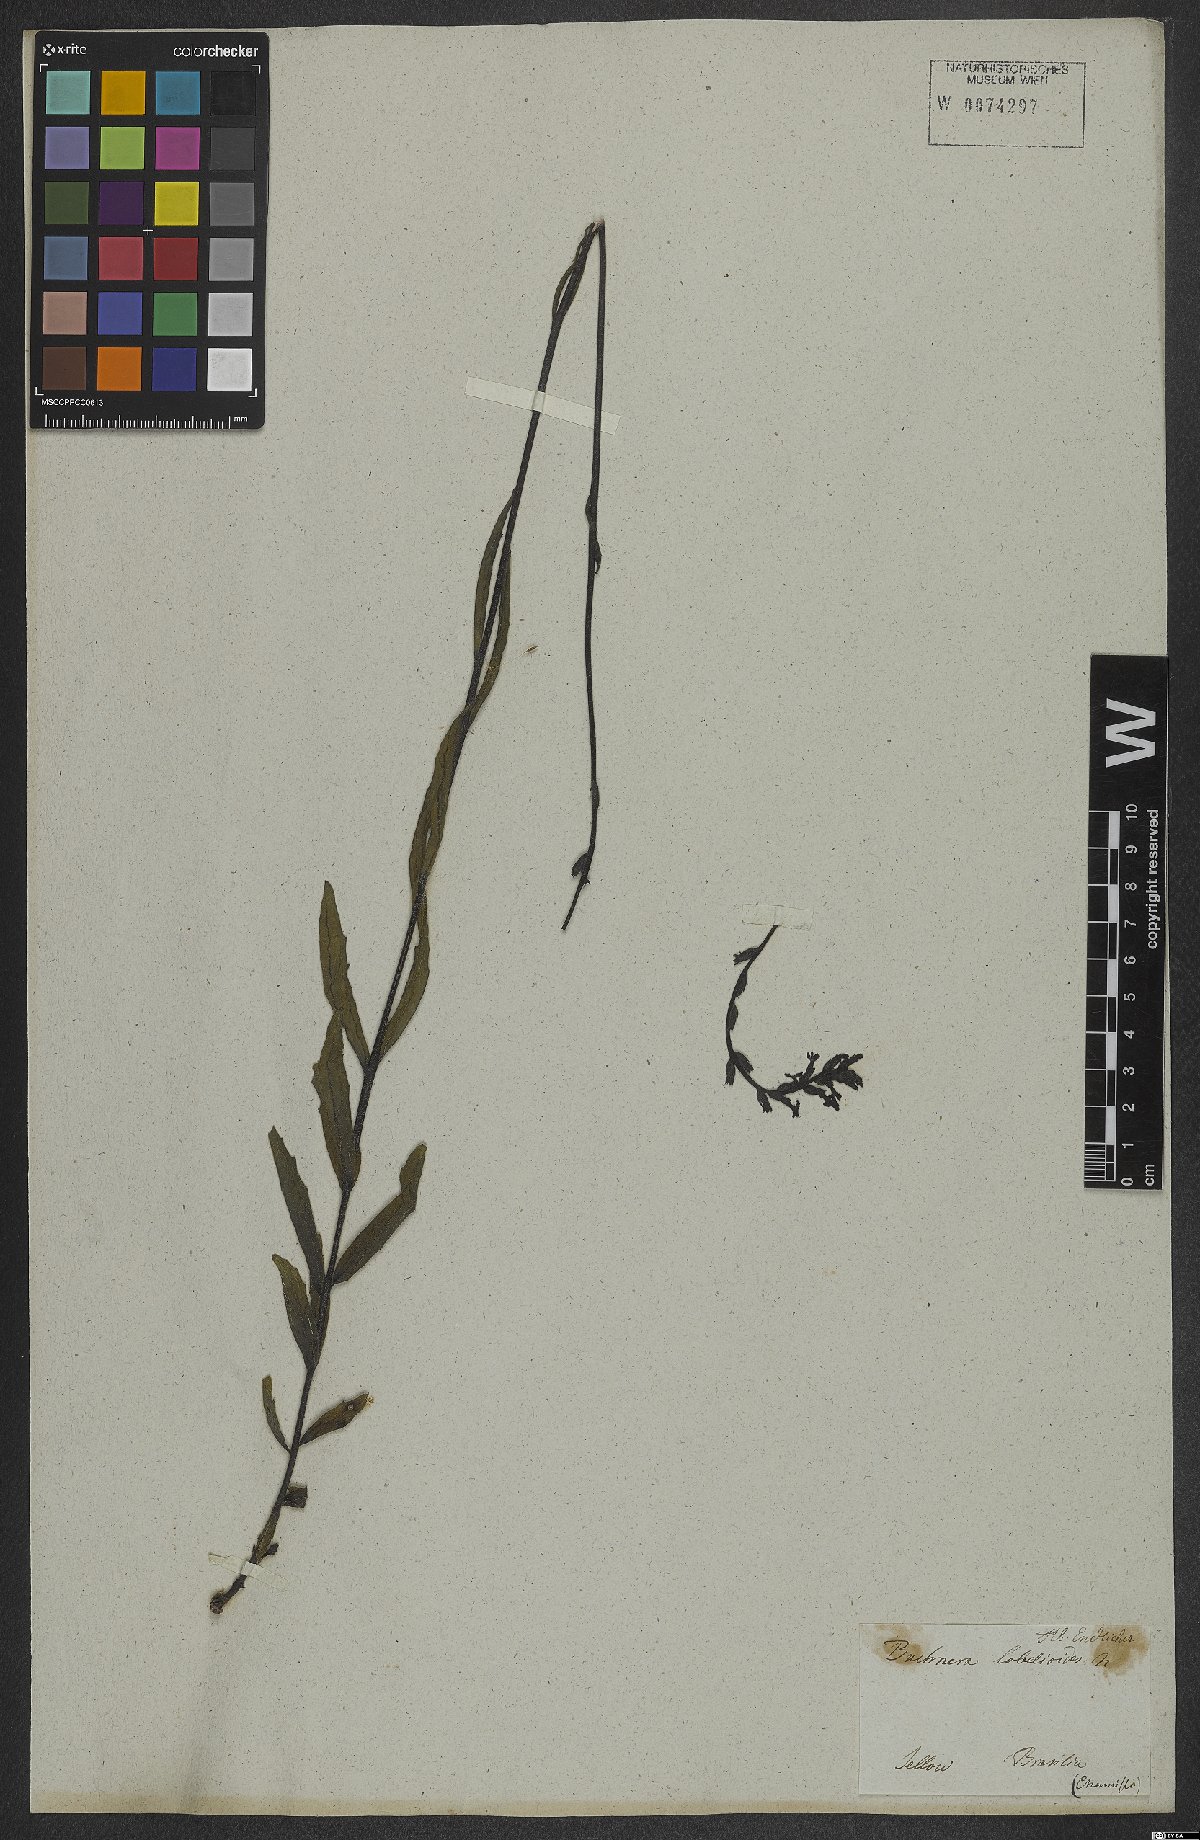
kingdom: Plantae
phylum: Tracheophyta
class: Magnoliopsida
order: Lamiales
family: Orobanchaceae
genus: Buchnera
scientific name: Buchnera ternifolia
